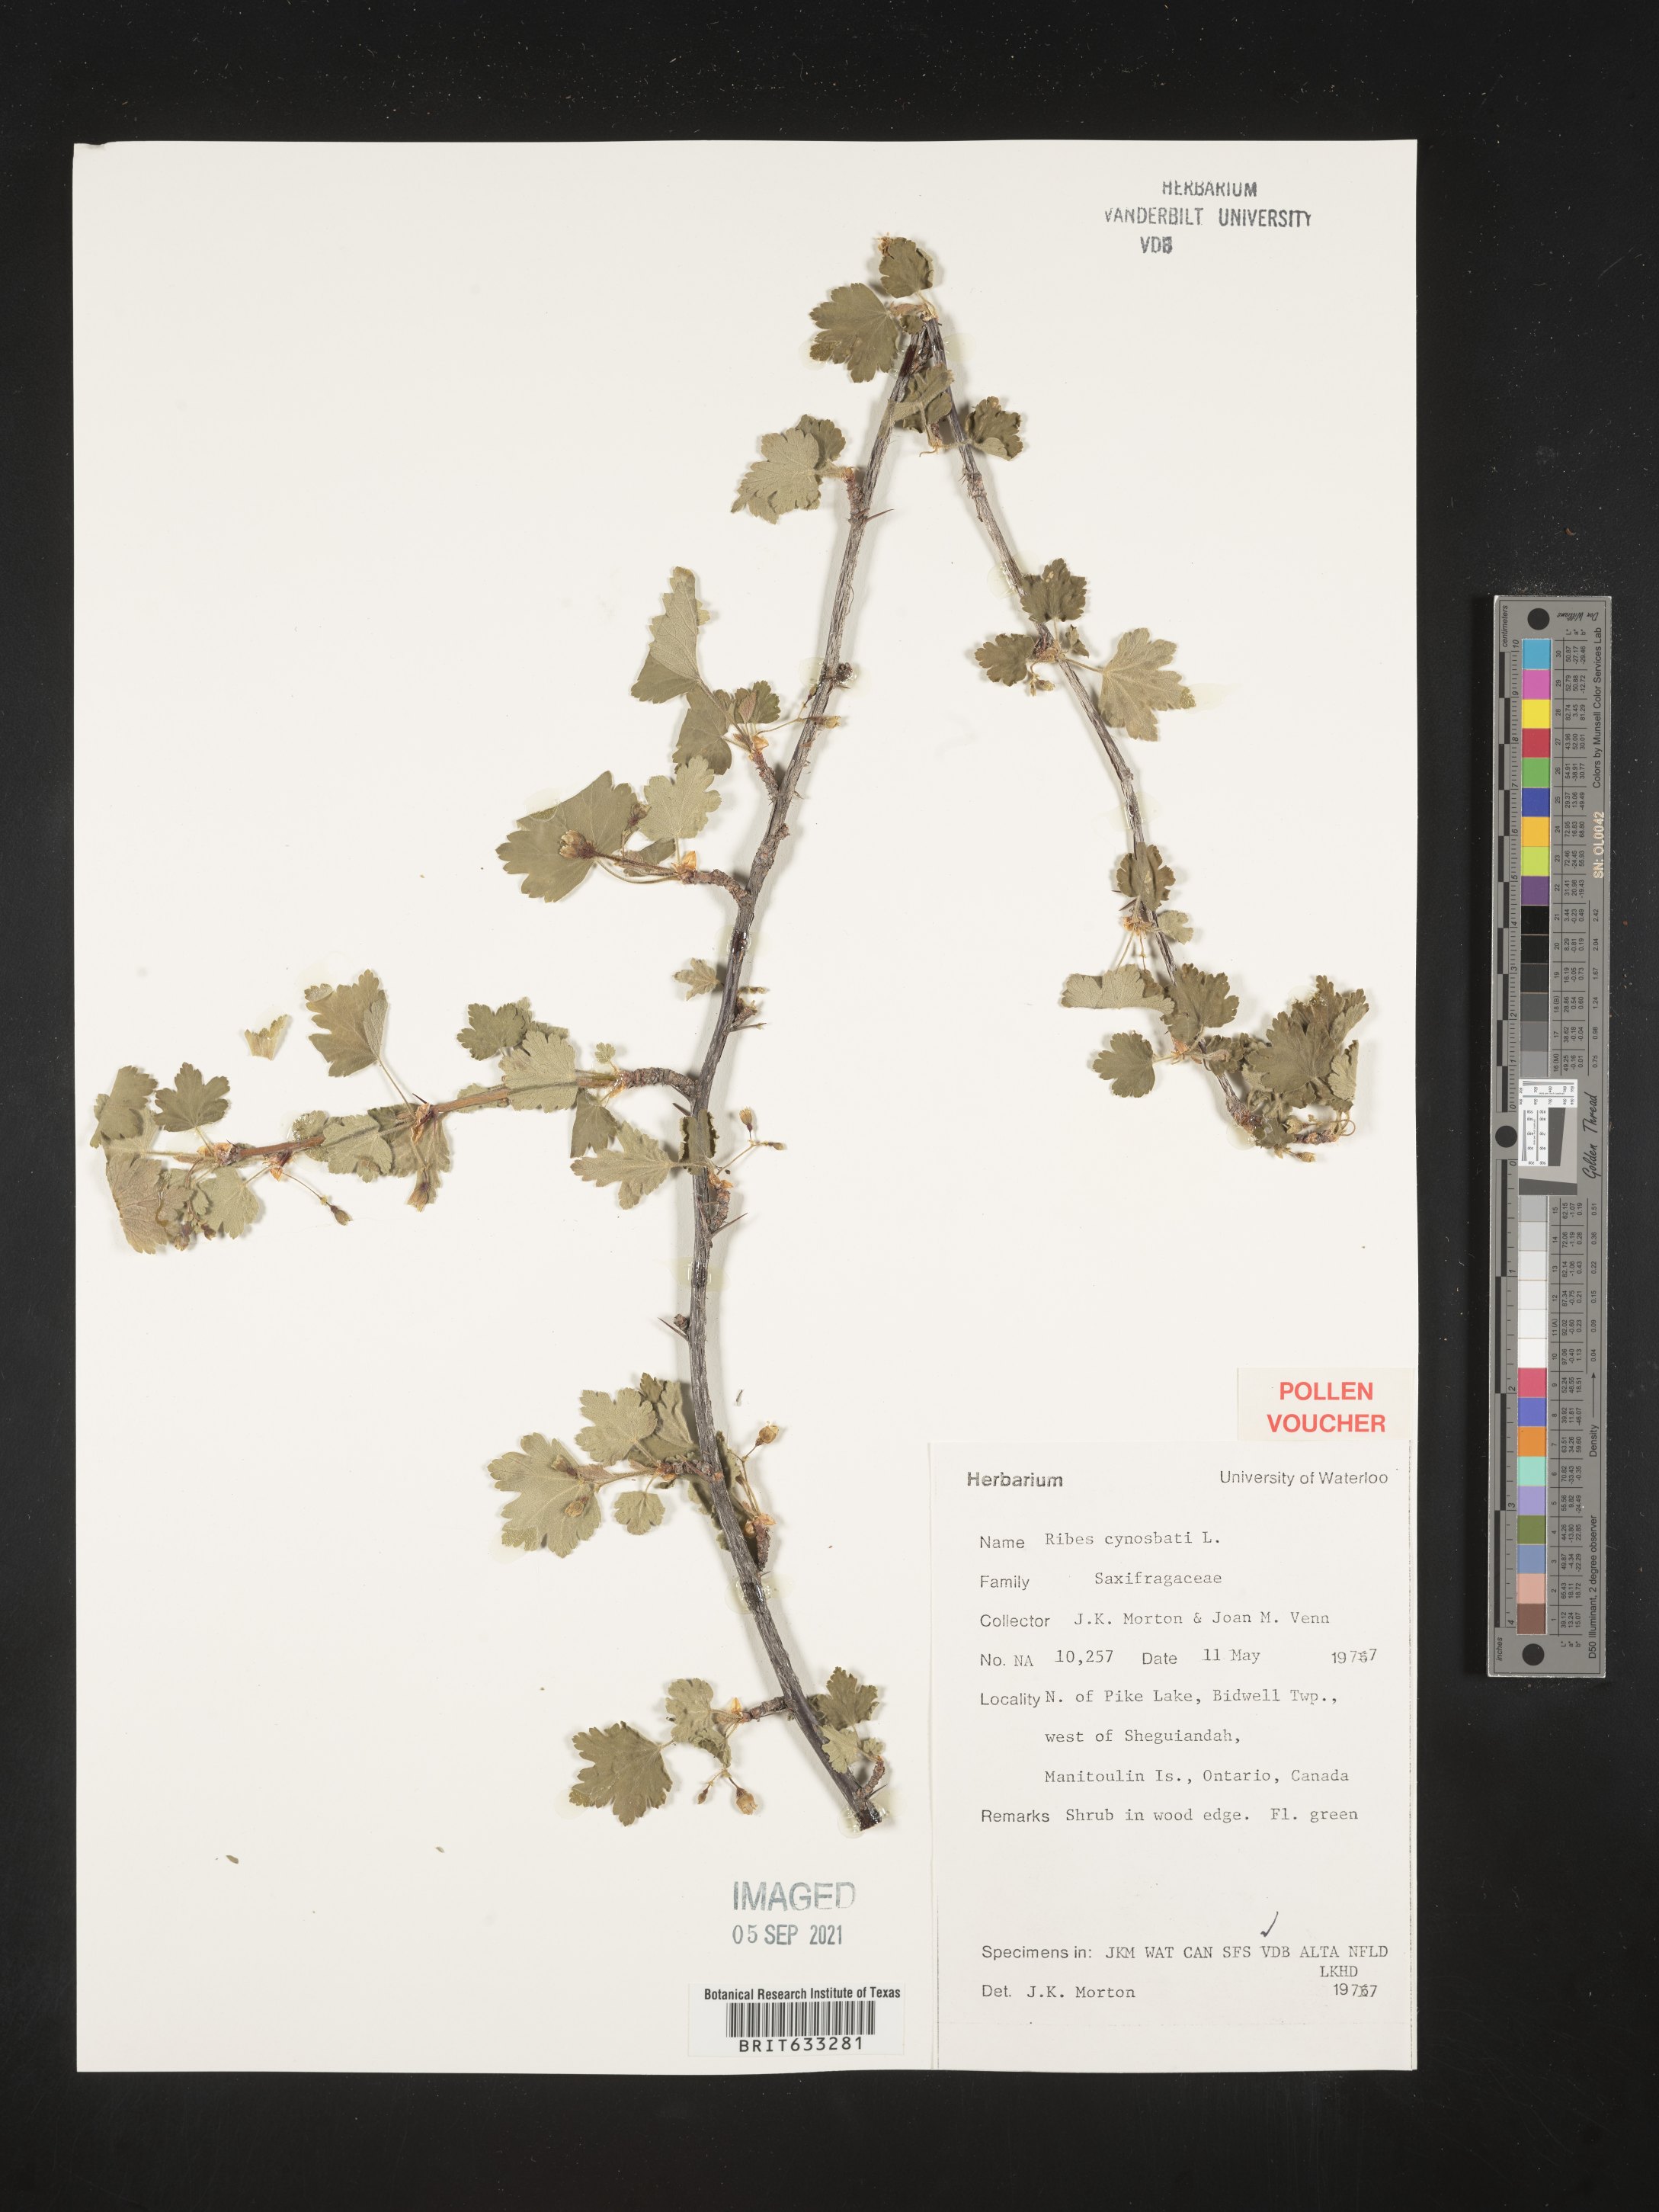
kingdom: Plantae
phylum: Tracheophyta
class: Magnoliopsida
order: Saxifragales
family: Grossulariaceae
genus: Ribes
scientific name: Ribes
